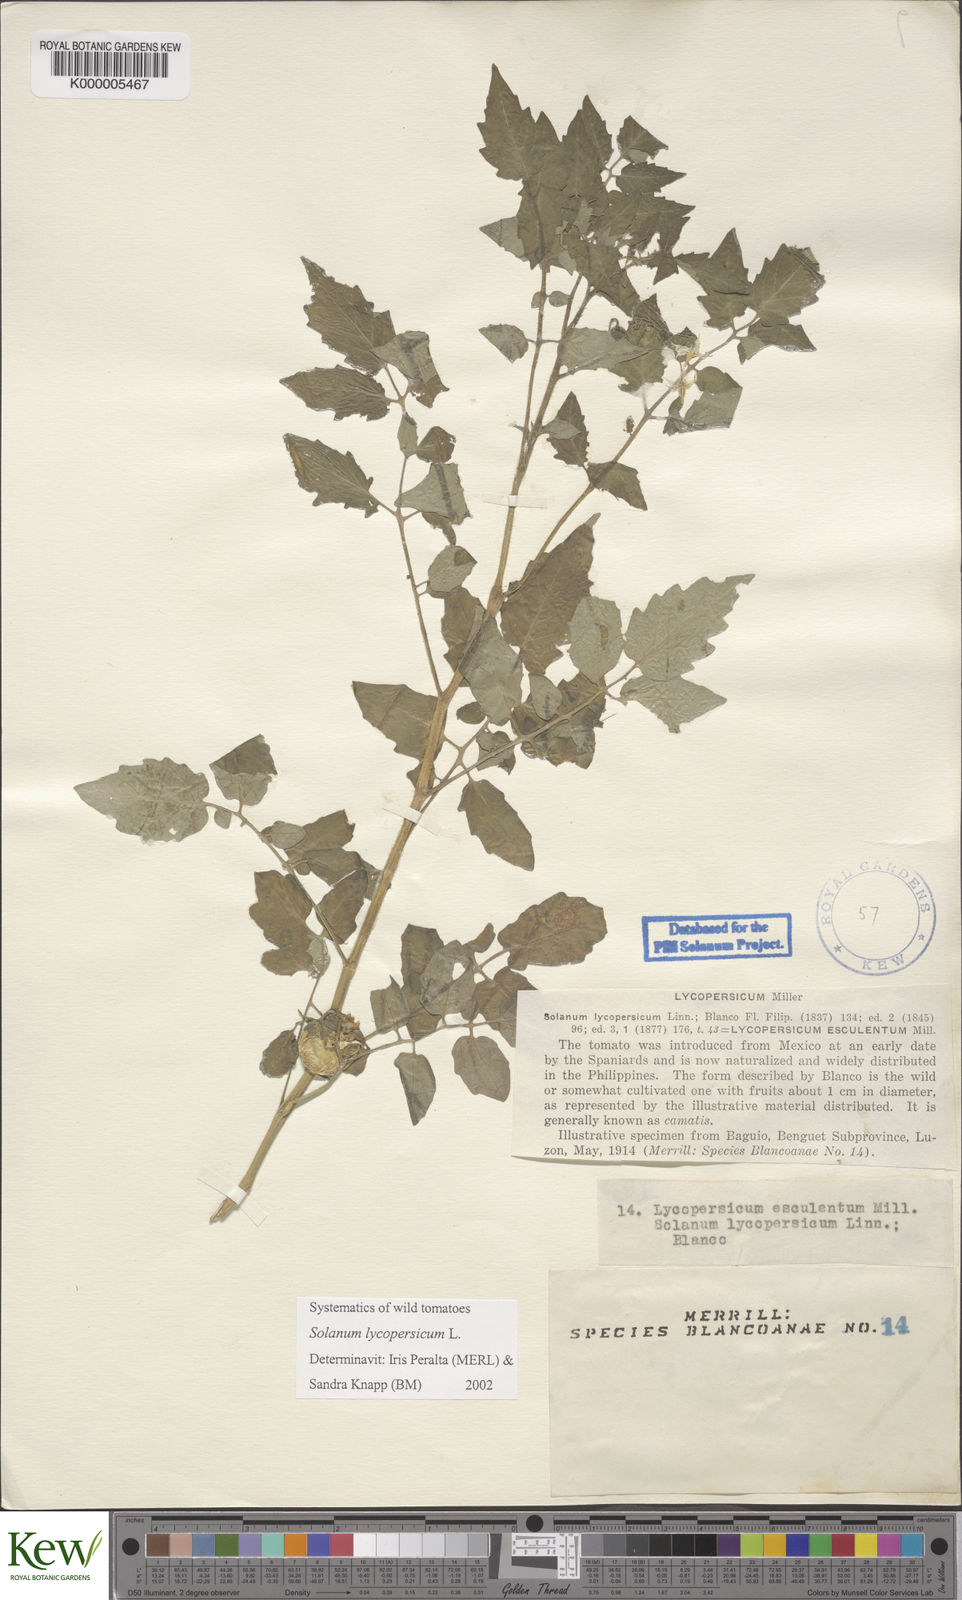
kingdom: Plantae
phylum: Tracheophyta
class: Magnoliopsida
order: Solanales
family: Solanaceae
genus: Solanum
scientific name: Solanum lycopersicum
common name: Garden tomato
